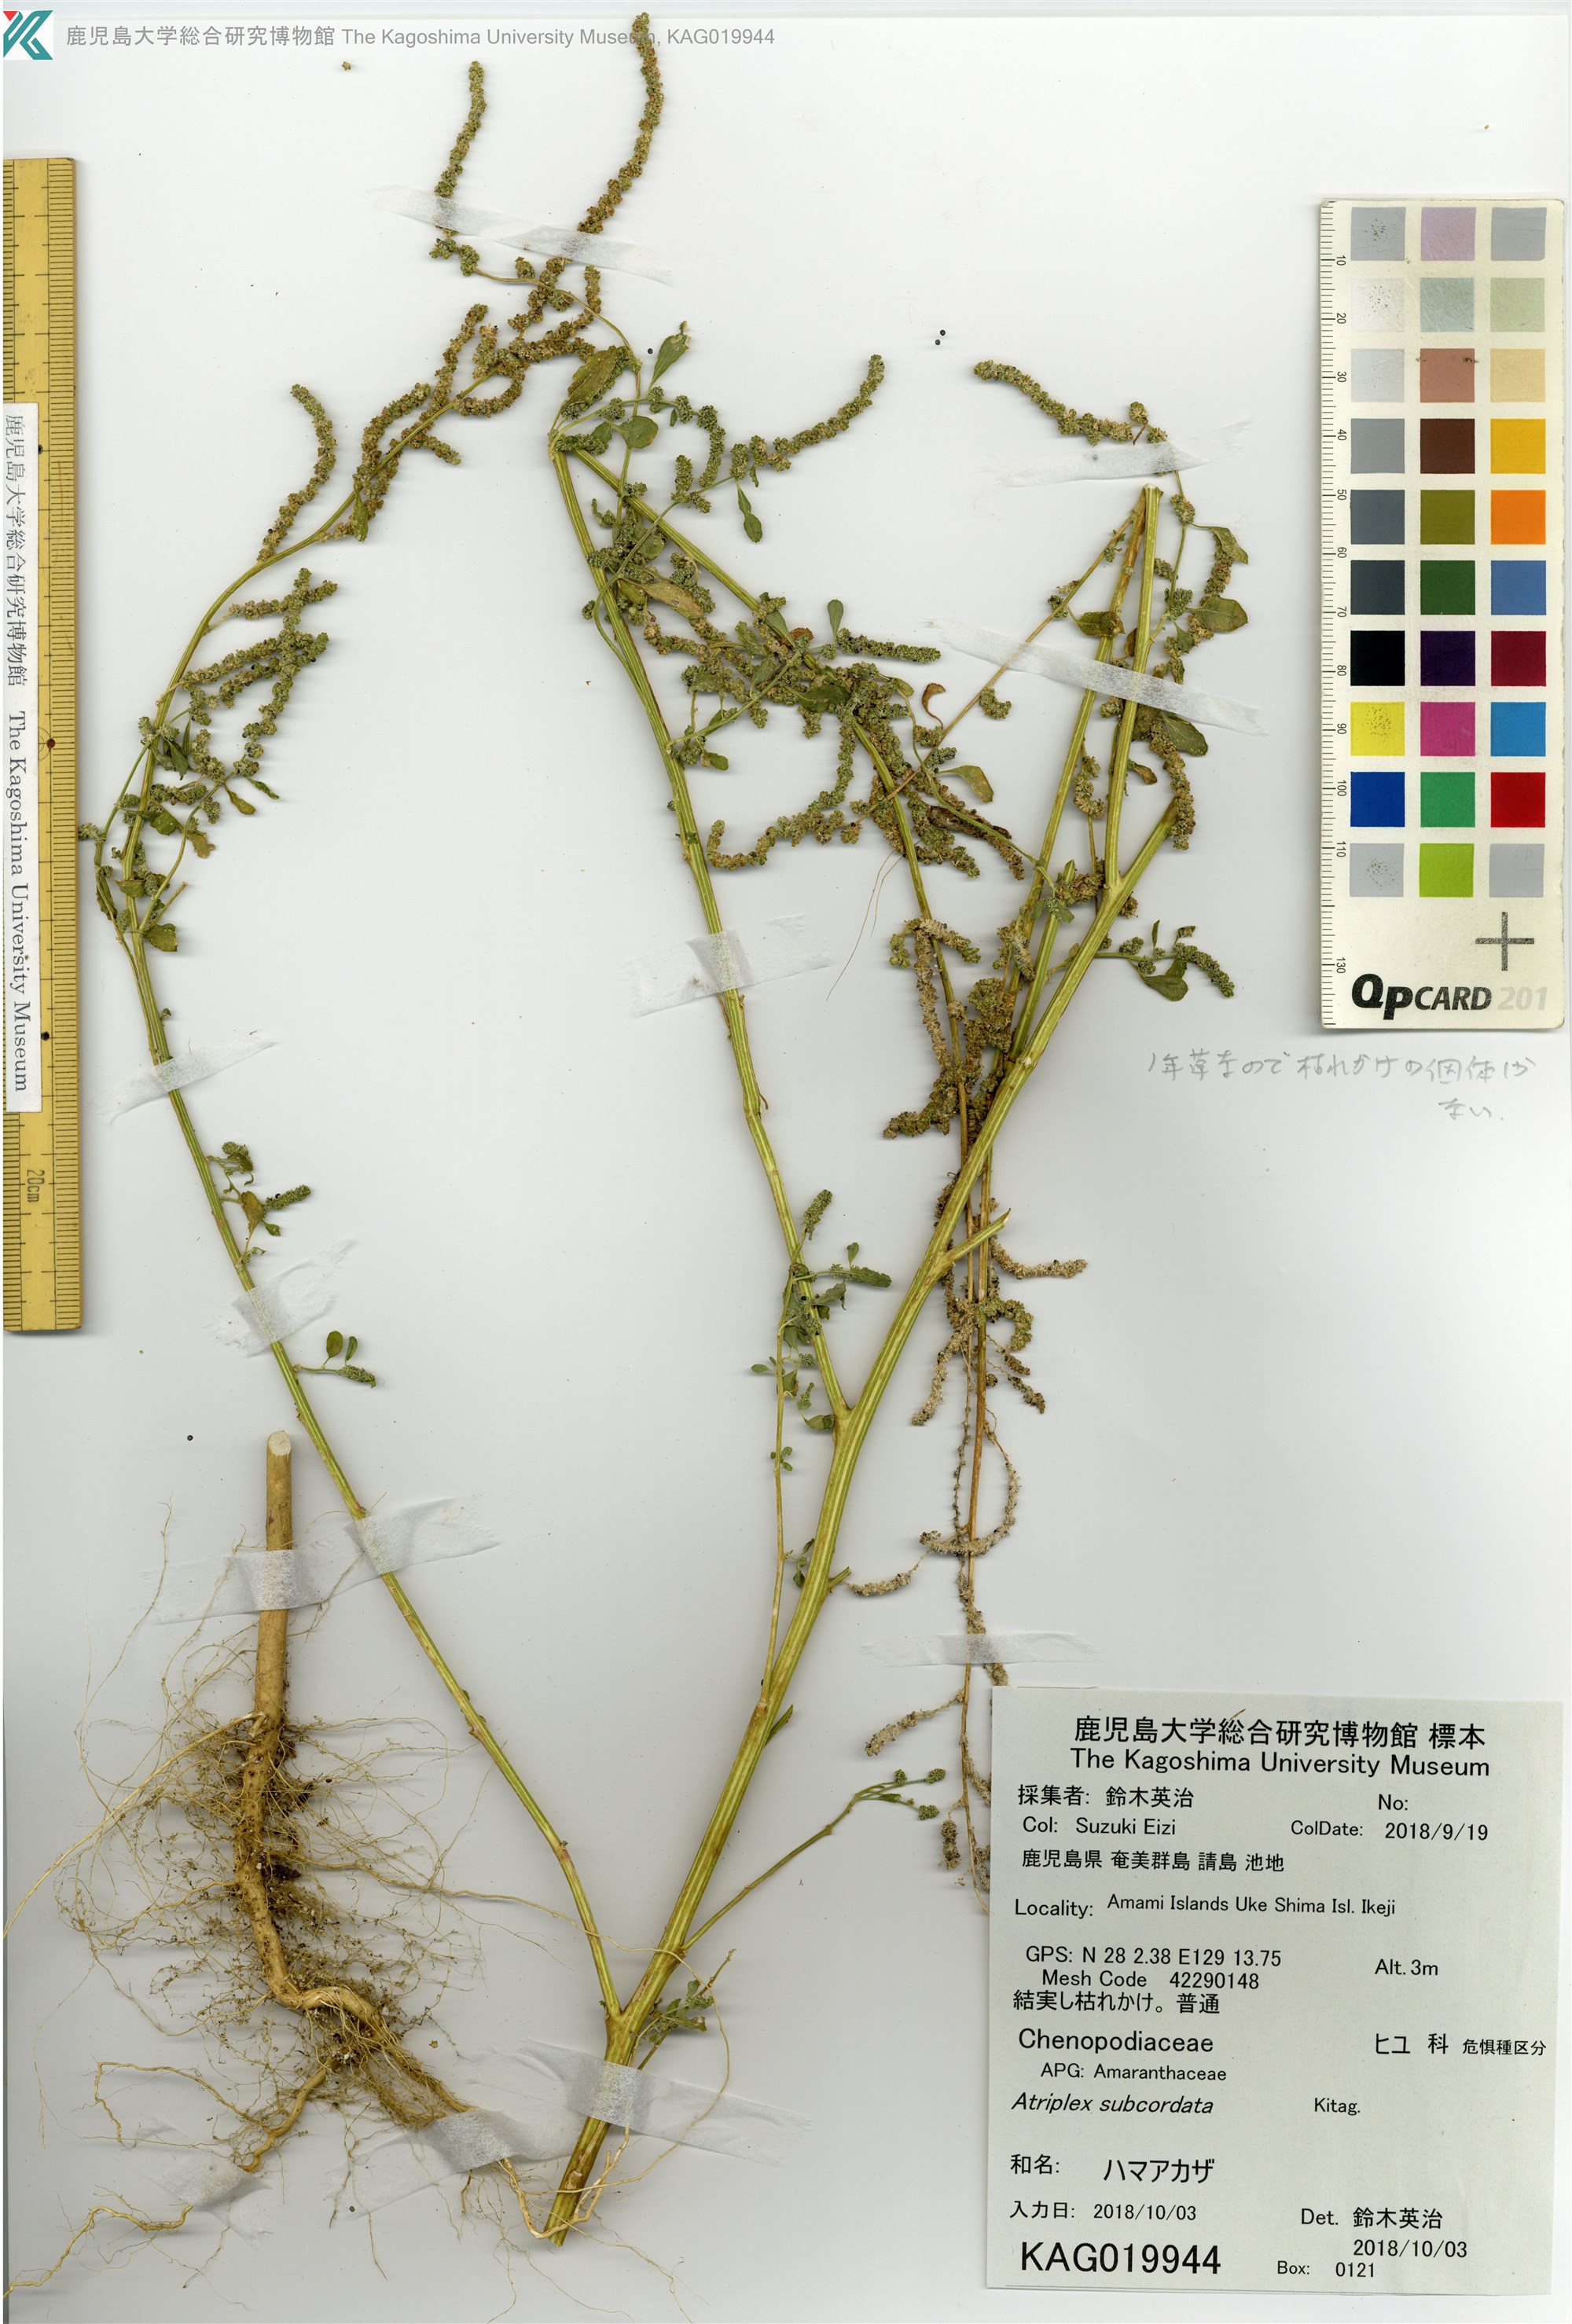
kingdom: Plantae
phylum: Tracheophyta
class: Magnoliopsida
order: Caryophyllales
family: Amaranthaceae
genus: Chenopodium
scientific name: Chenopodium acuminatum
